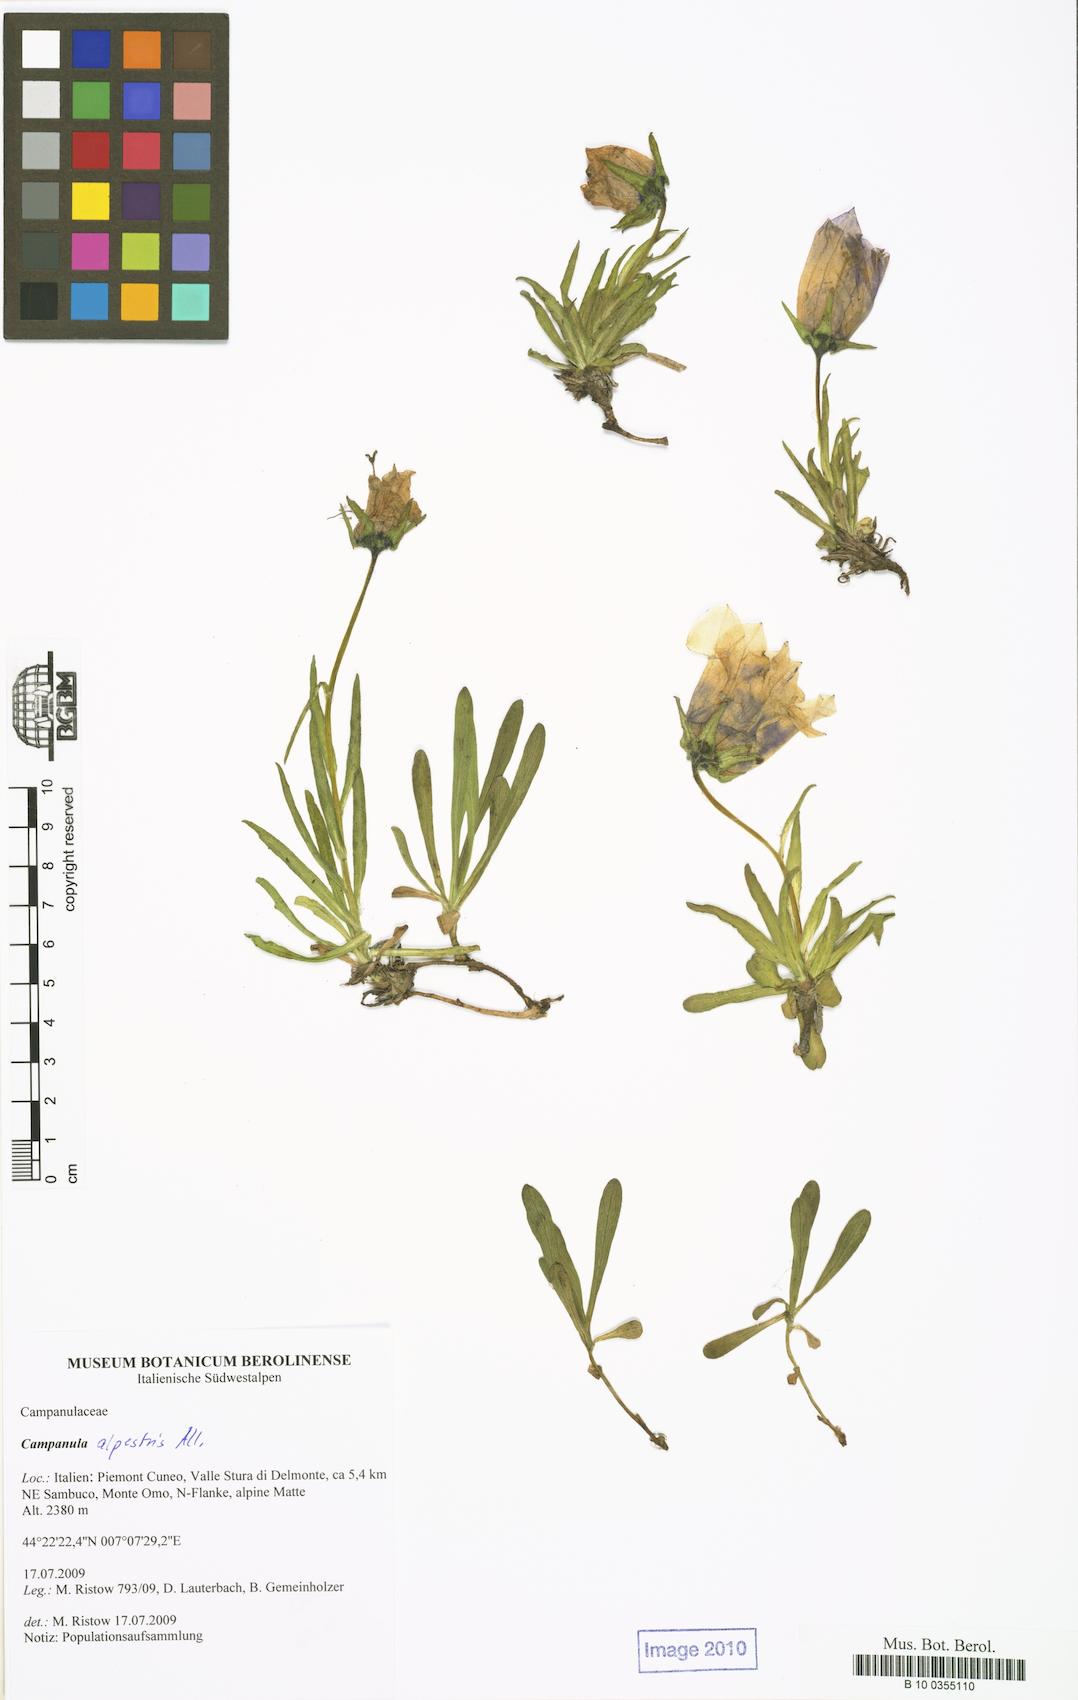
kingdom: Plantae
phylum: Tracheophyta
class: Magnoliopsida
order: Asterales
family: Campanulaceae
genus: Campanula
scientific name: Campanula alpestris
